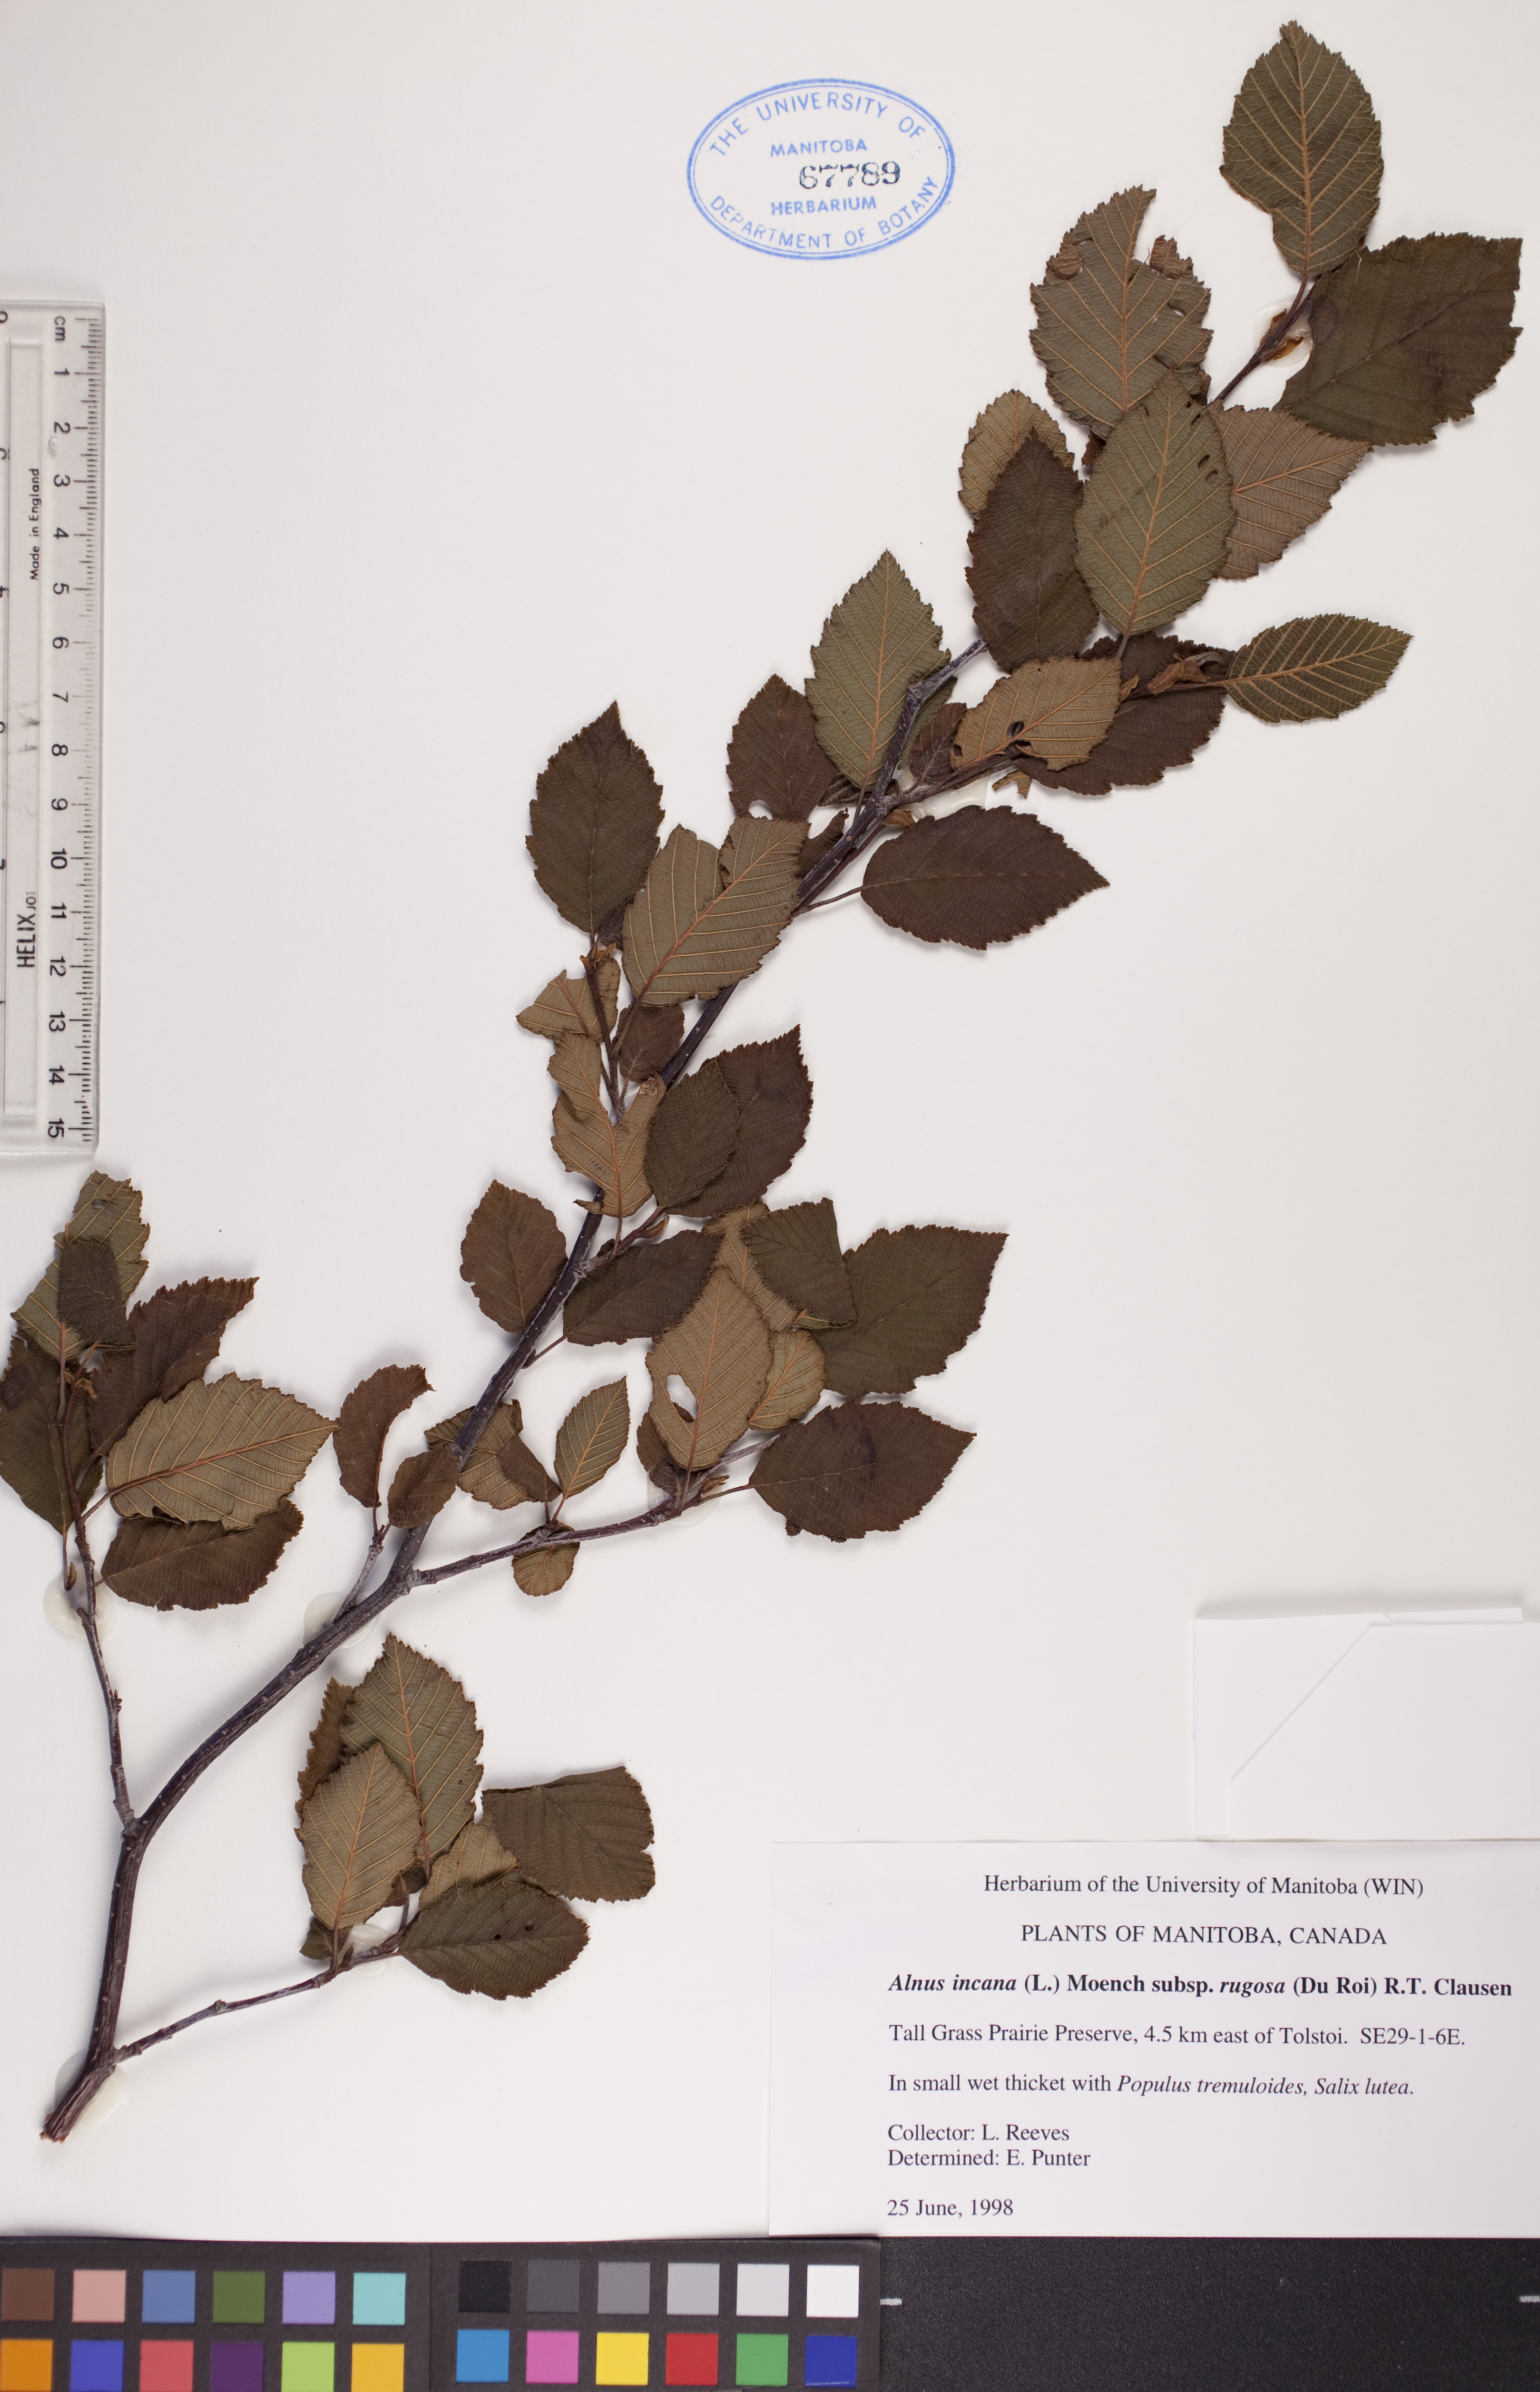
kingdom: Plantae
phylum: Tracheophyta
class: Magnoliopsida
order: Fagales
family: Betulaceae
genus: Alnus
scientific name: Alnus incana
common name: Grey alder
